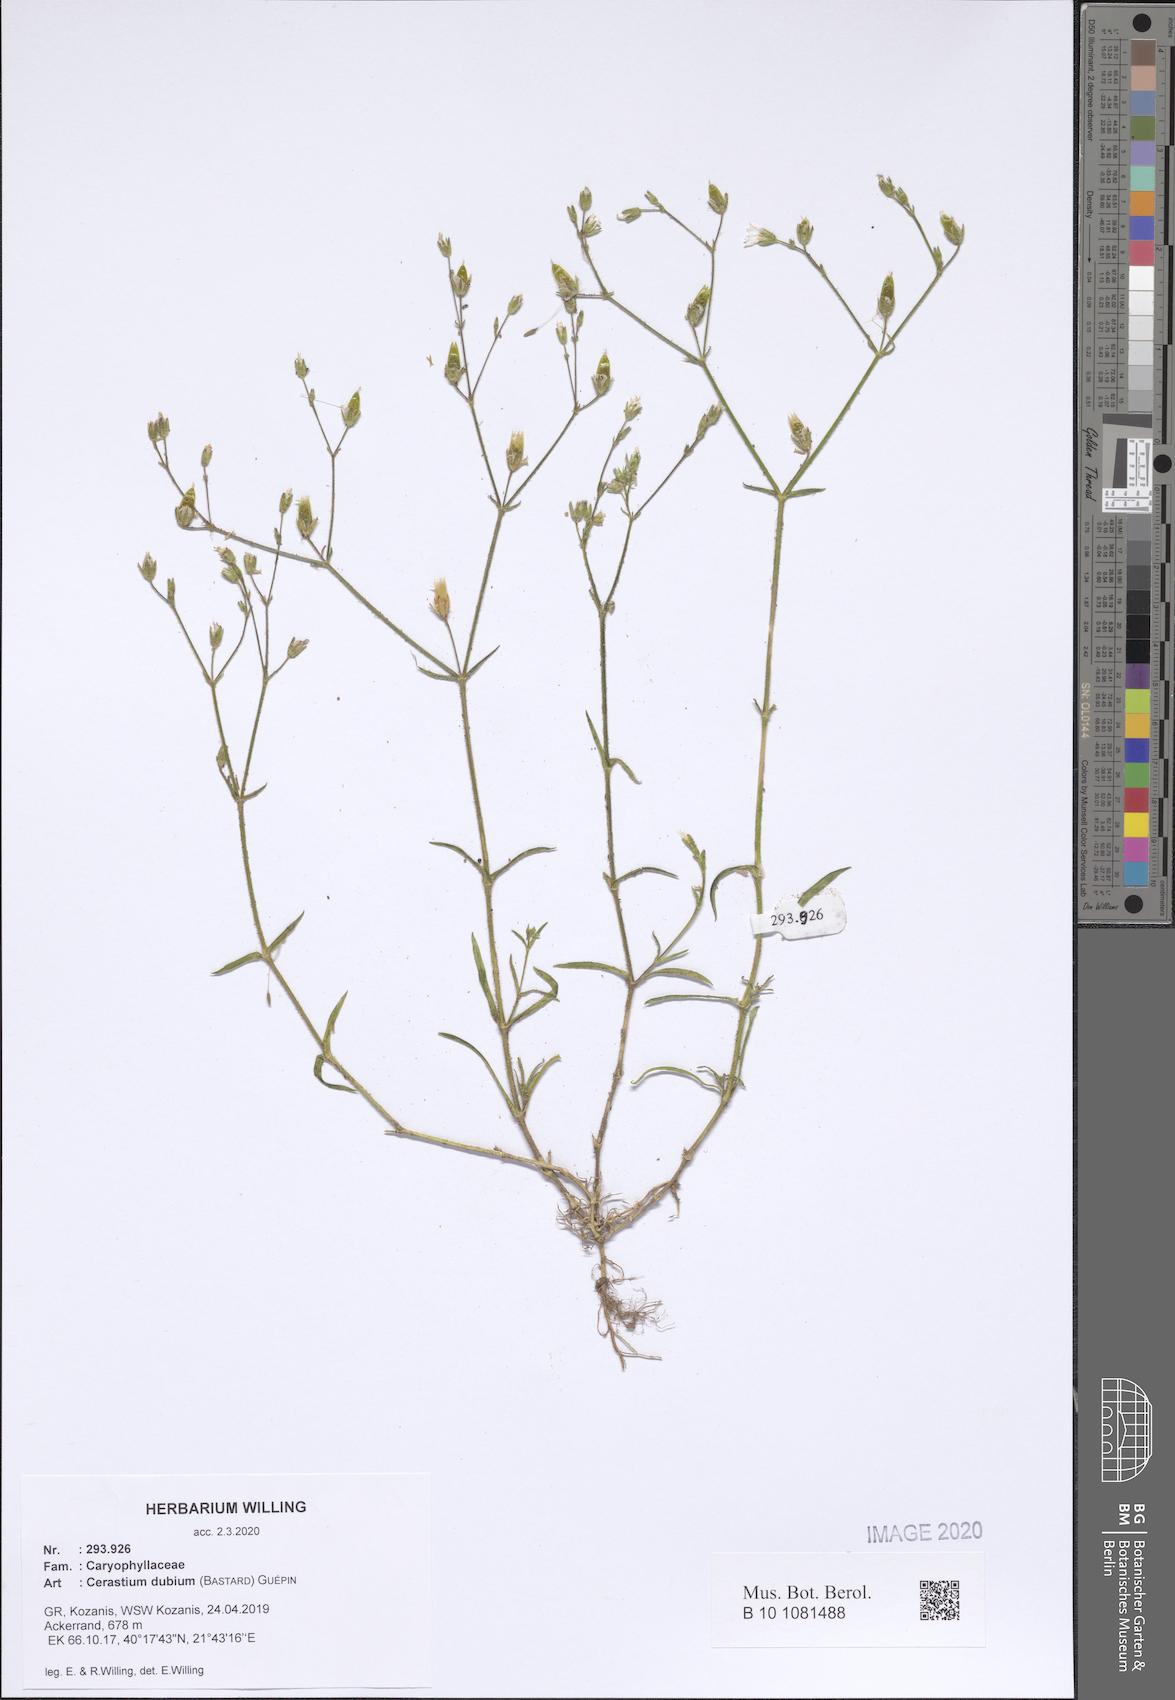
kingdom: Plantae
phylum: Tracheophyta
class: Magnoliopsida
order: Caryophyllales
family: Caryophyllaceae
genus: Dichodon
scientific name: Dichodon viscidum
